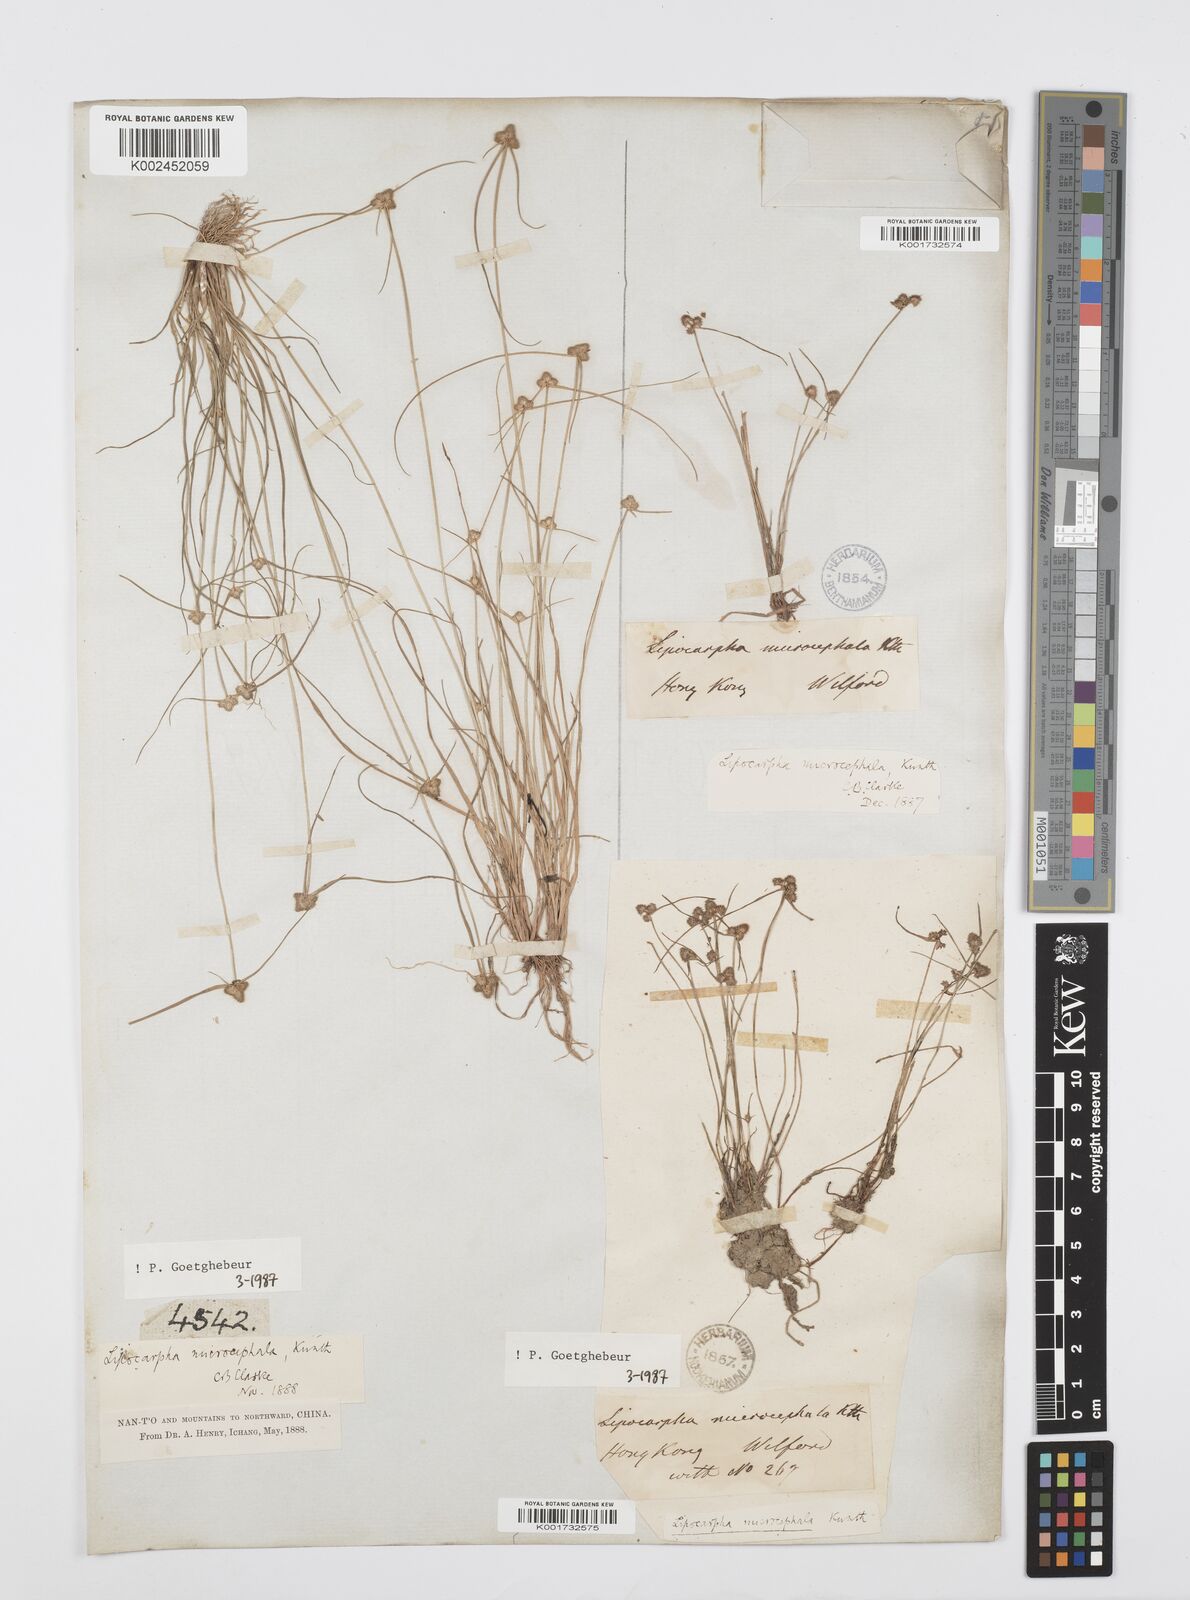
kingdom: Plantae
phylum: Tracheophyta
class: Liliopsida
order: Poales
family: Cyperaceae
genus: Cyperus
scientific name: Cyperus microcephalus
